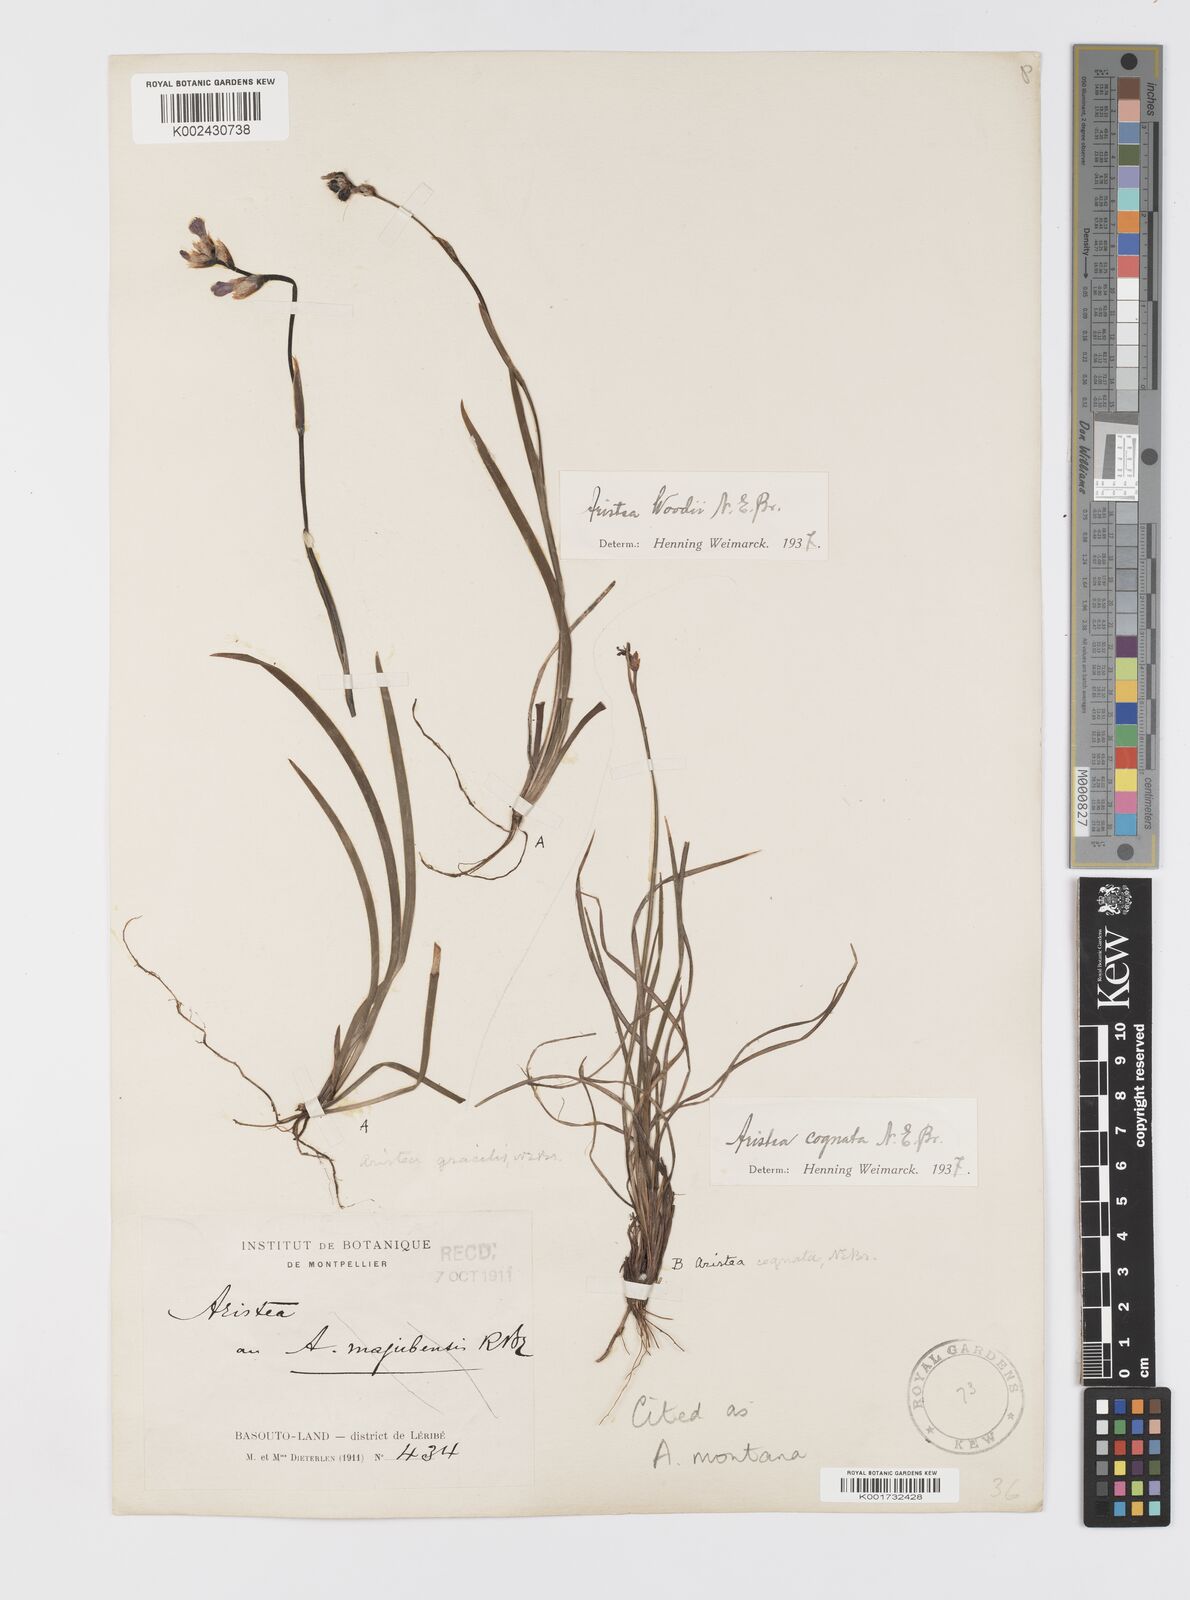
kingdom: Plantae
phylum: Tracheophyta
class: Liliopsida
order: Asparagales
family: Iridaceae
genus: Aristea
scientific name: Aristea montana
